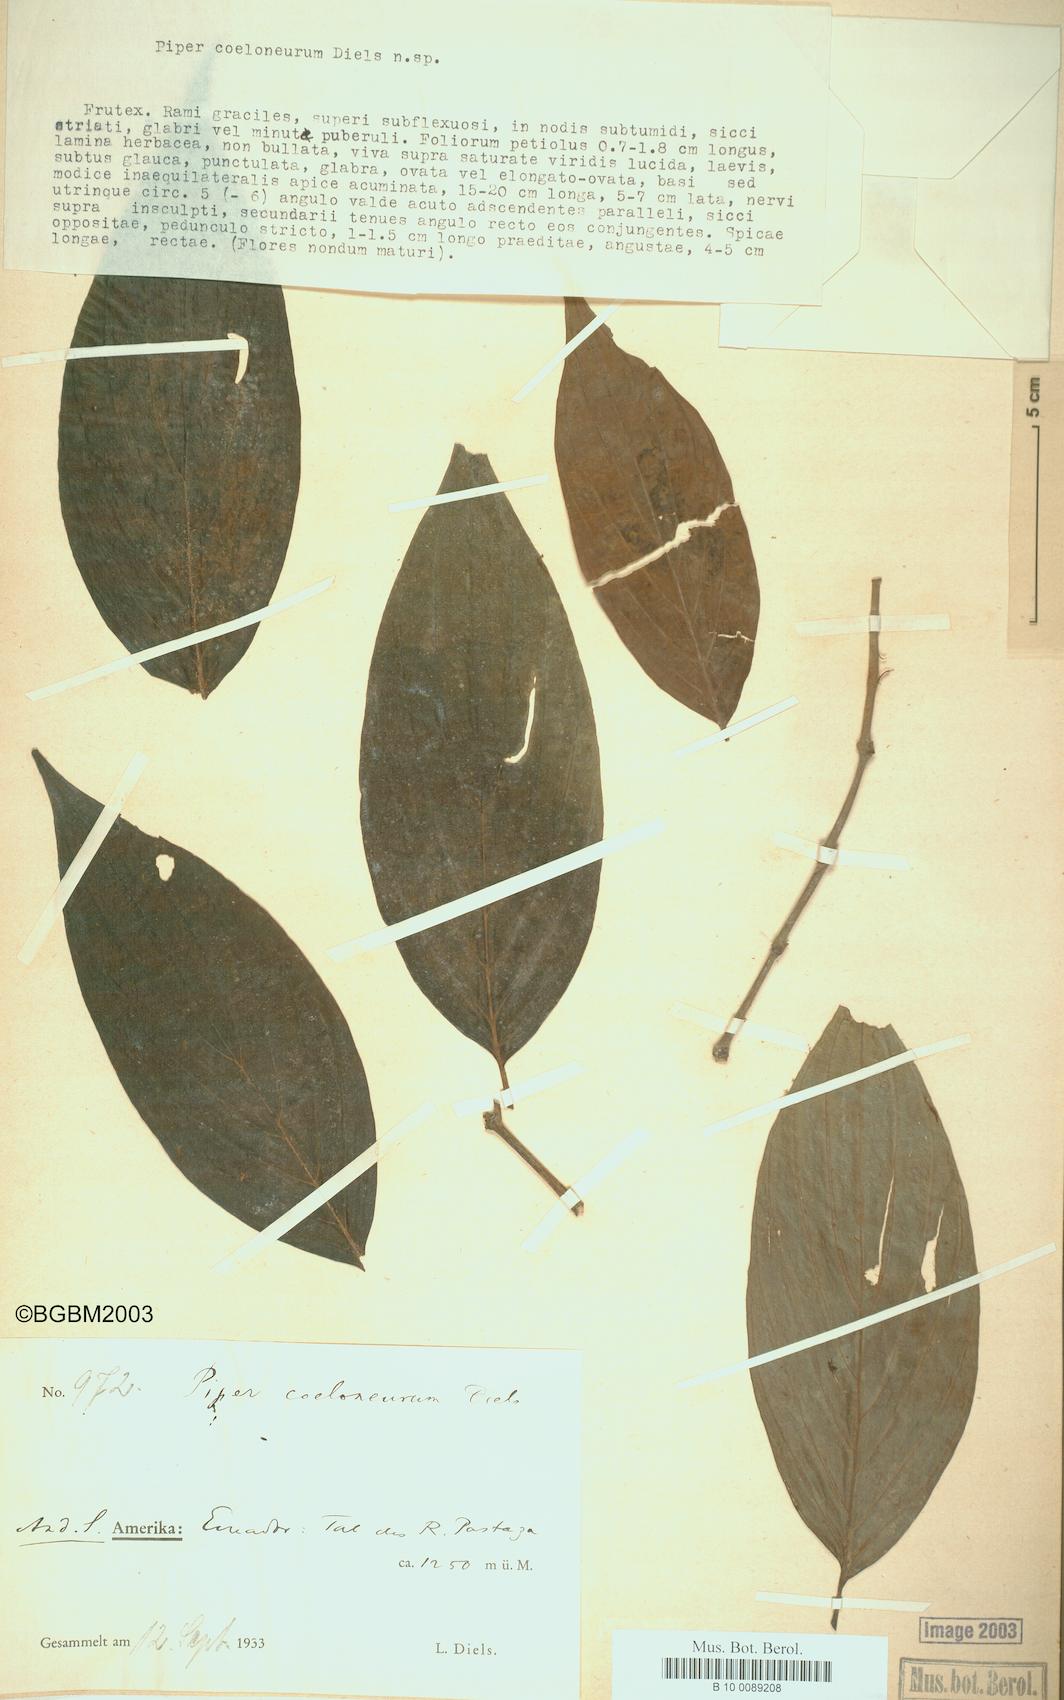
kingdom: Plantae
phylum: Tracheophyta
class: Magnoliopsida
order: Piperales
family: Piperaceae
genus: Piper
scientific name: Piper coeloneurum
